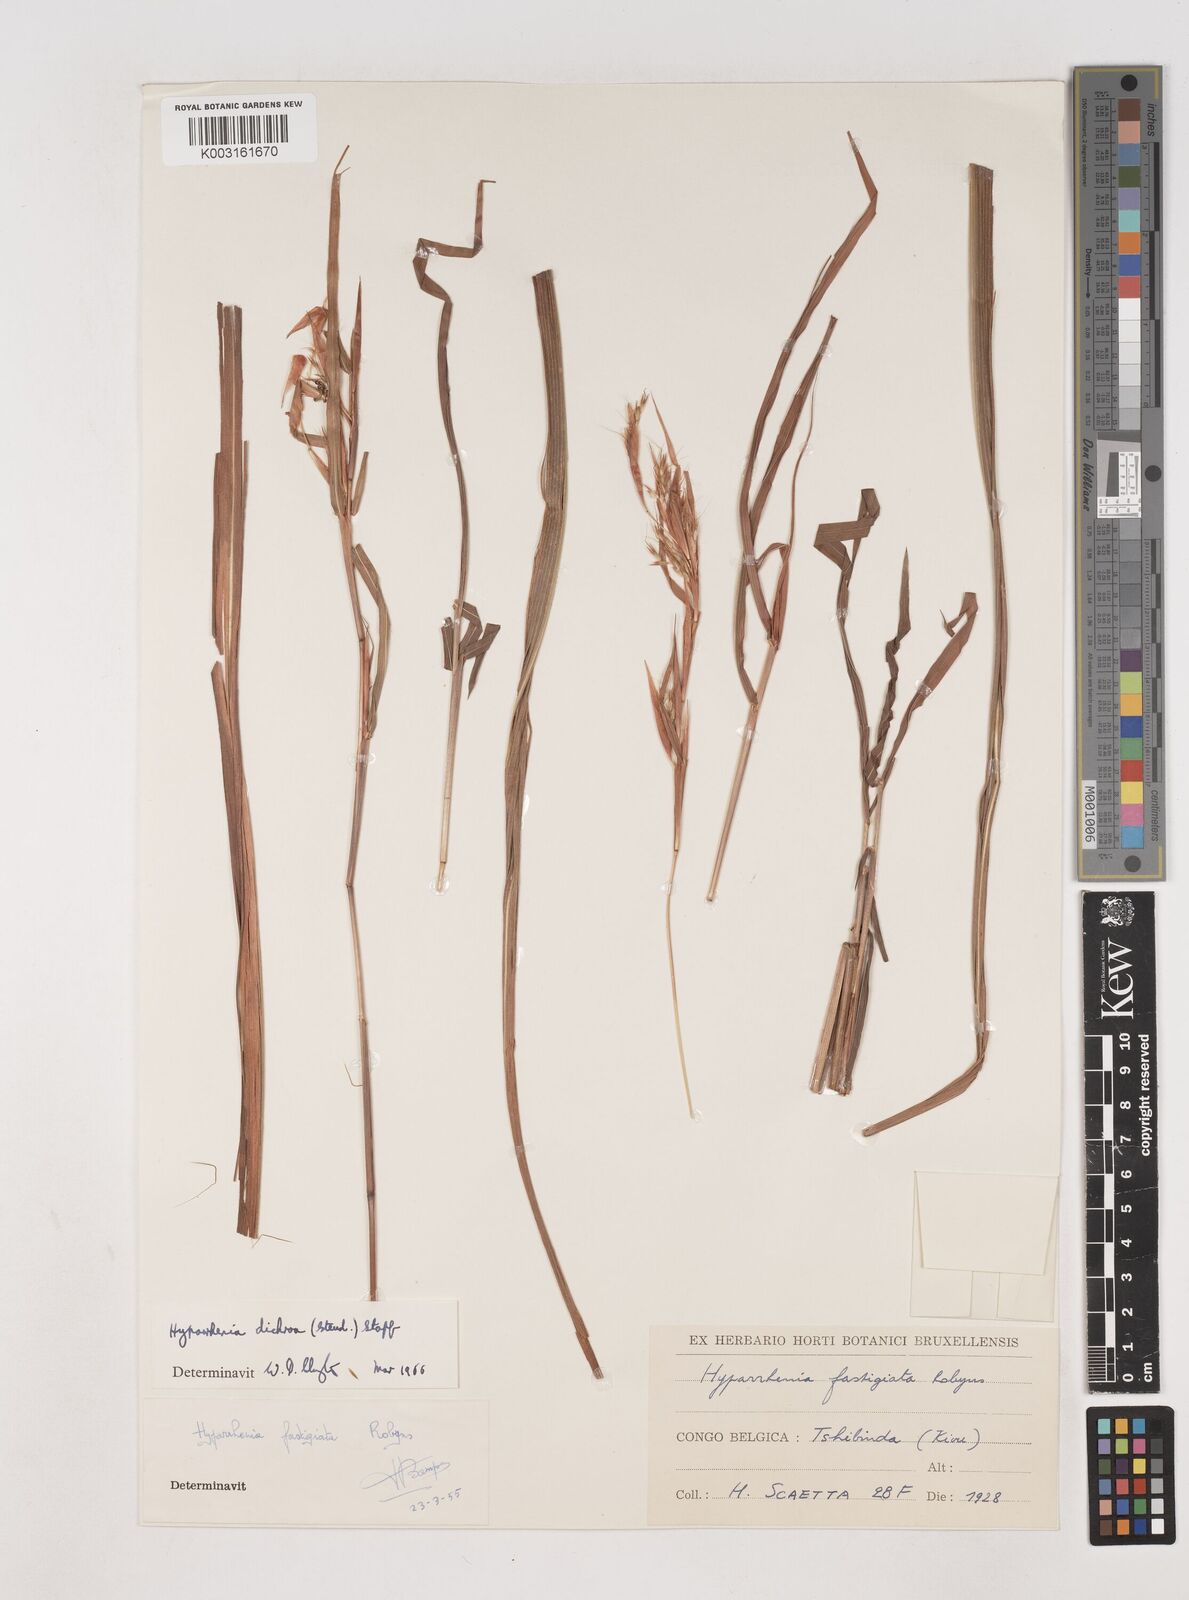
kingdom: Plantae
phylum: Tracheophyta
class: Liliopsida
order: Poales
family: Poaceae
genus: Hyparrhenia
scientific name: Hyparrhenia dichroa
